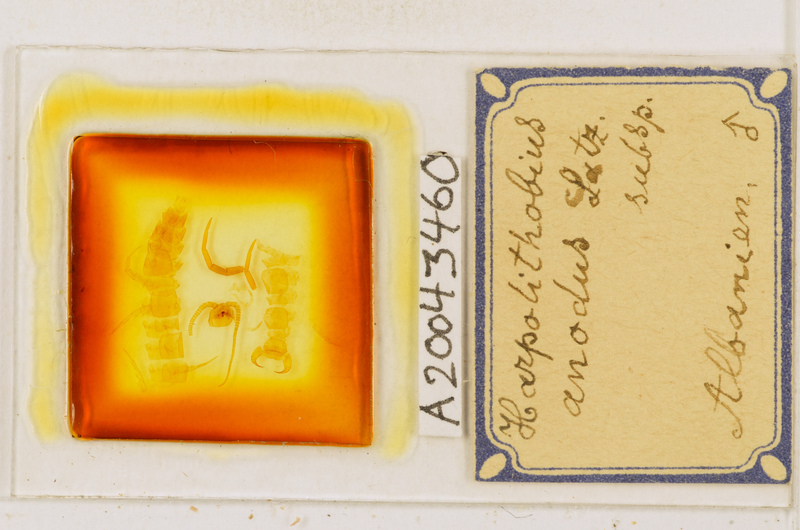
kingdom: Animalia
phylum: Arthropoda
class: Chilopoda
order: Lithobiomorpha
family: Lithobiidae
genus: Lithobius
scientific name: Lithobius
